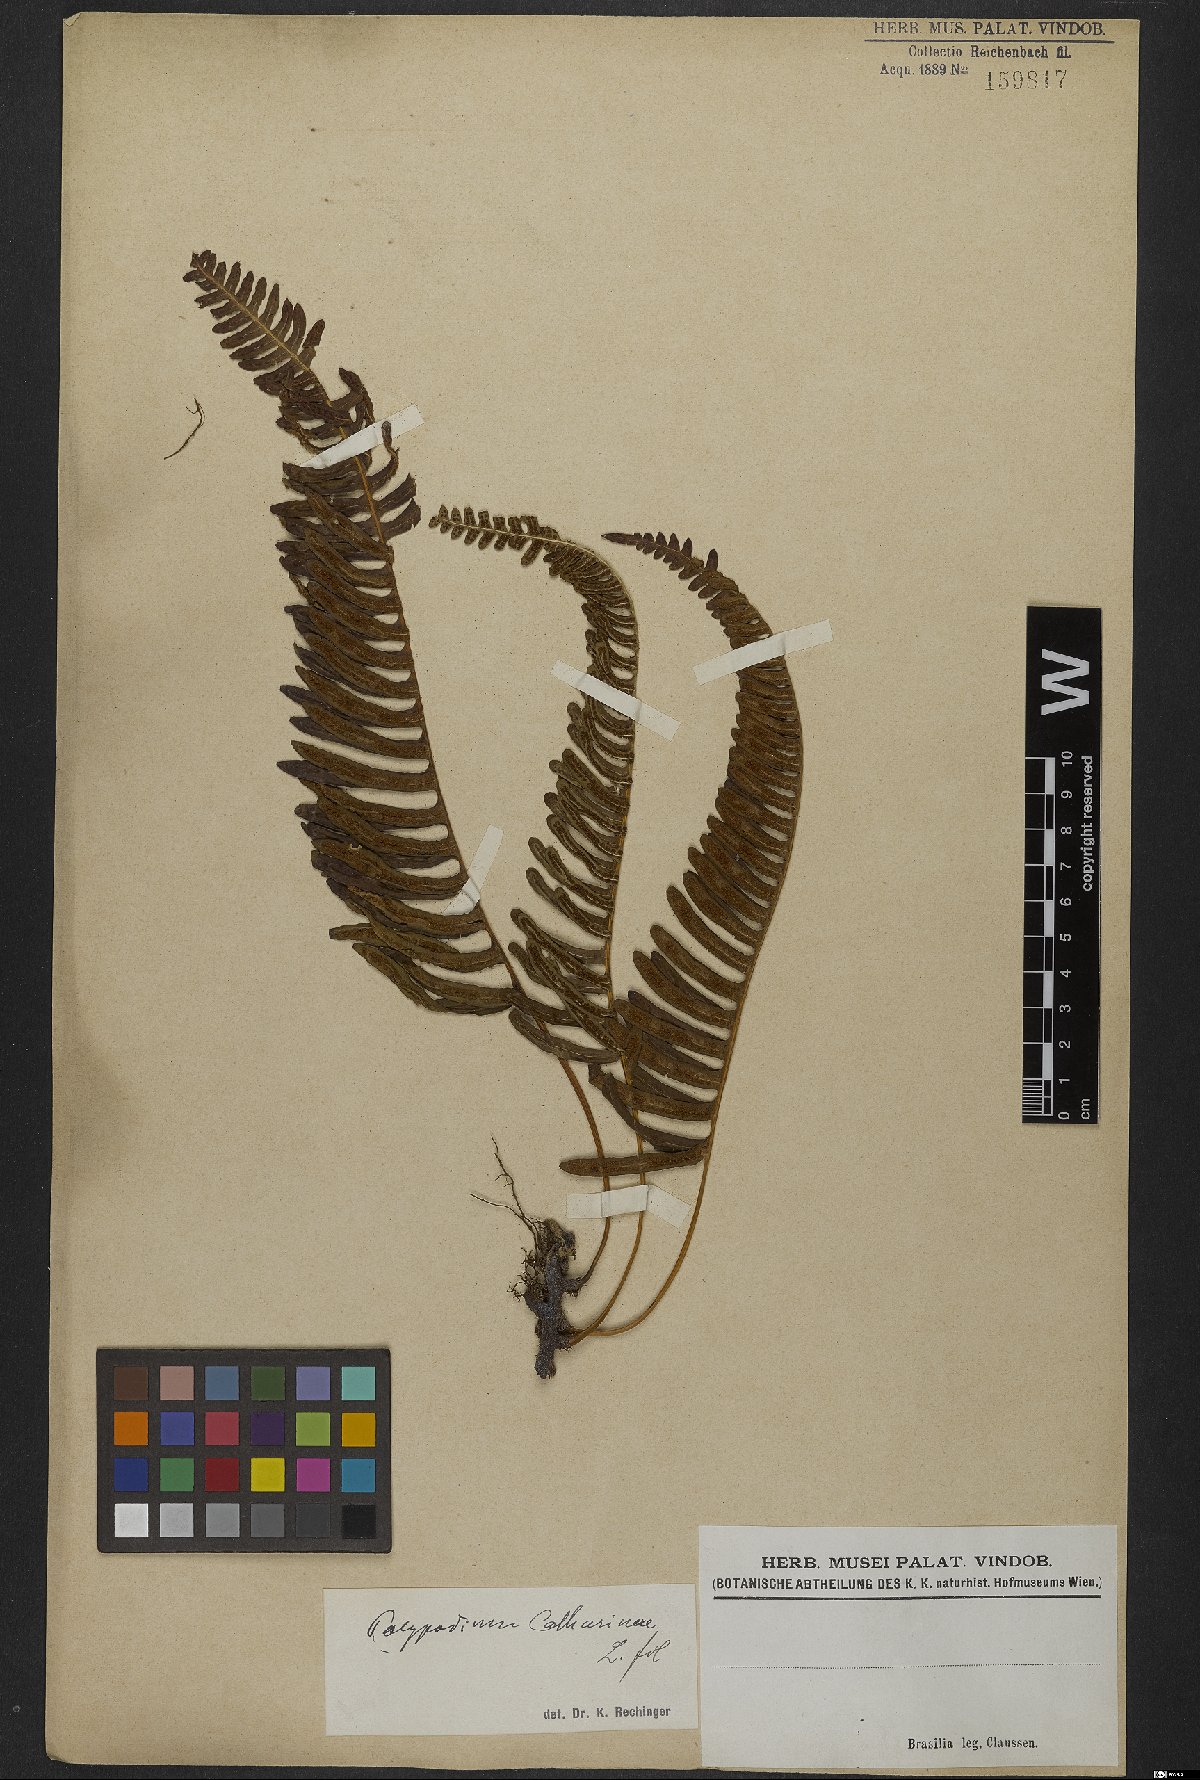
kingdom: Plantae
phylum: Tracheophyta
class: Polypodiopsida
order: Polypodiales
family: Polypodiaceae
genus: Serpocaulon
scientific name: Serpocaulon catharinae
